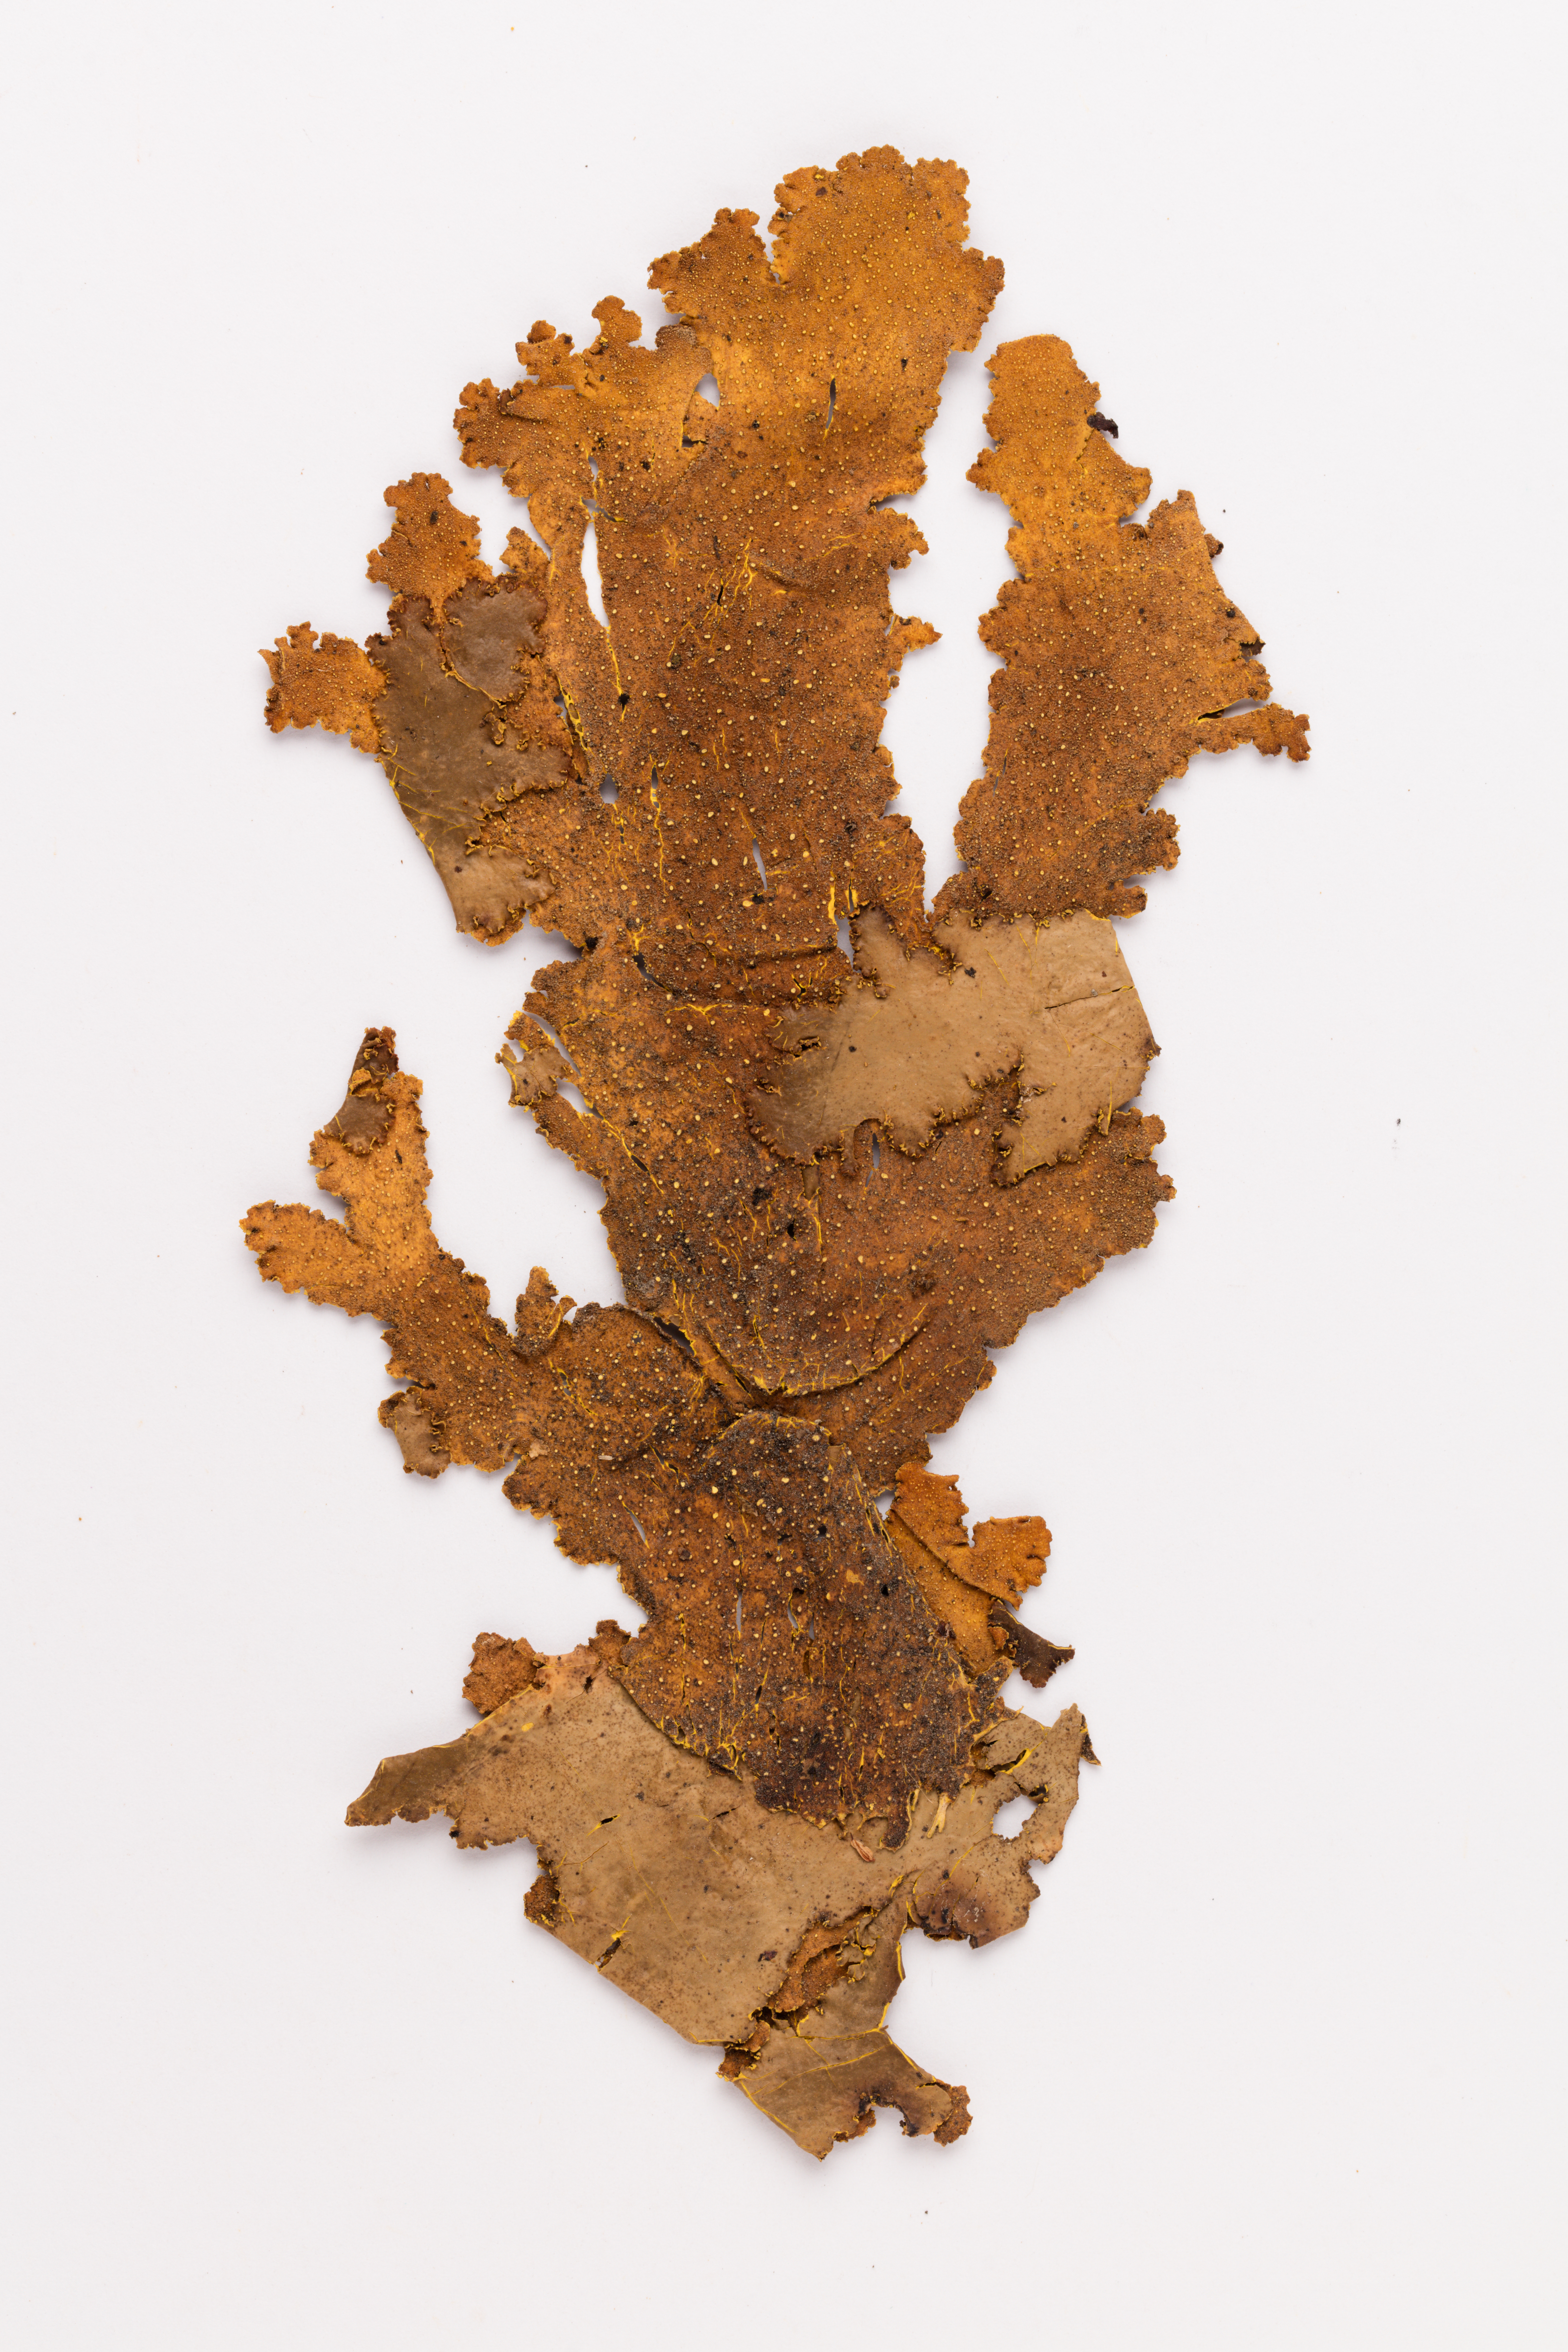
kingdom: Fungi
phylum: Ascomycota
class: Lecanoromycetes
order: Peltigerales
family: Lobariaceae
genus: Yarrumia
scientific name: Yarrumia colensoi
